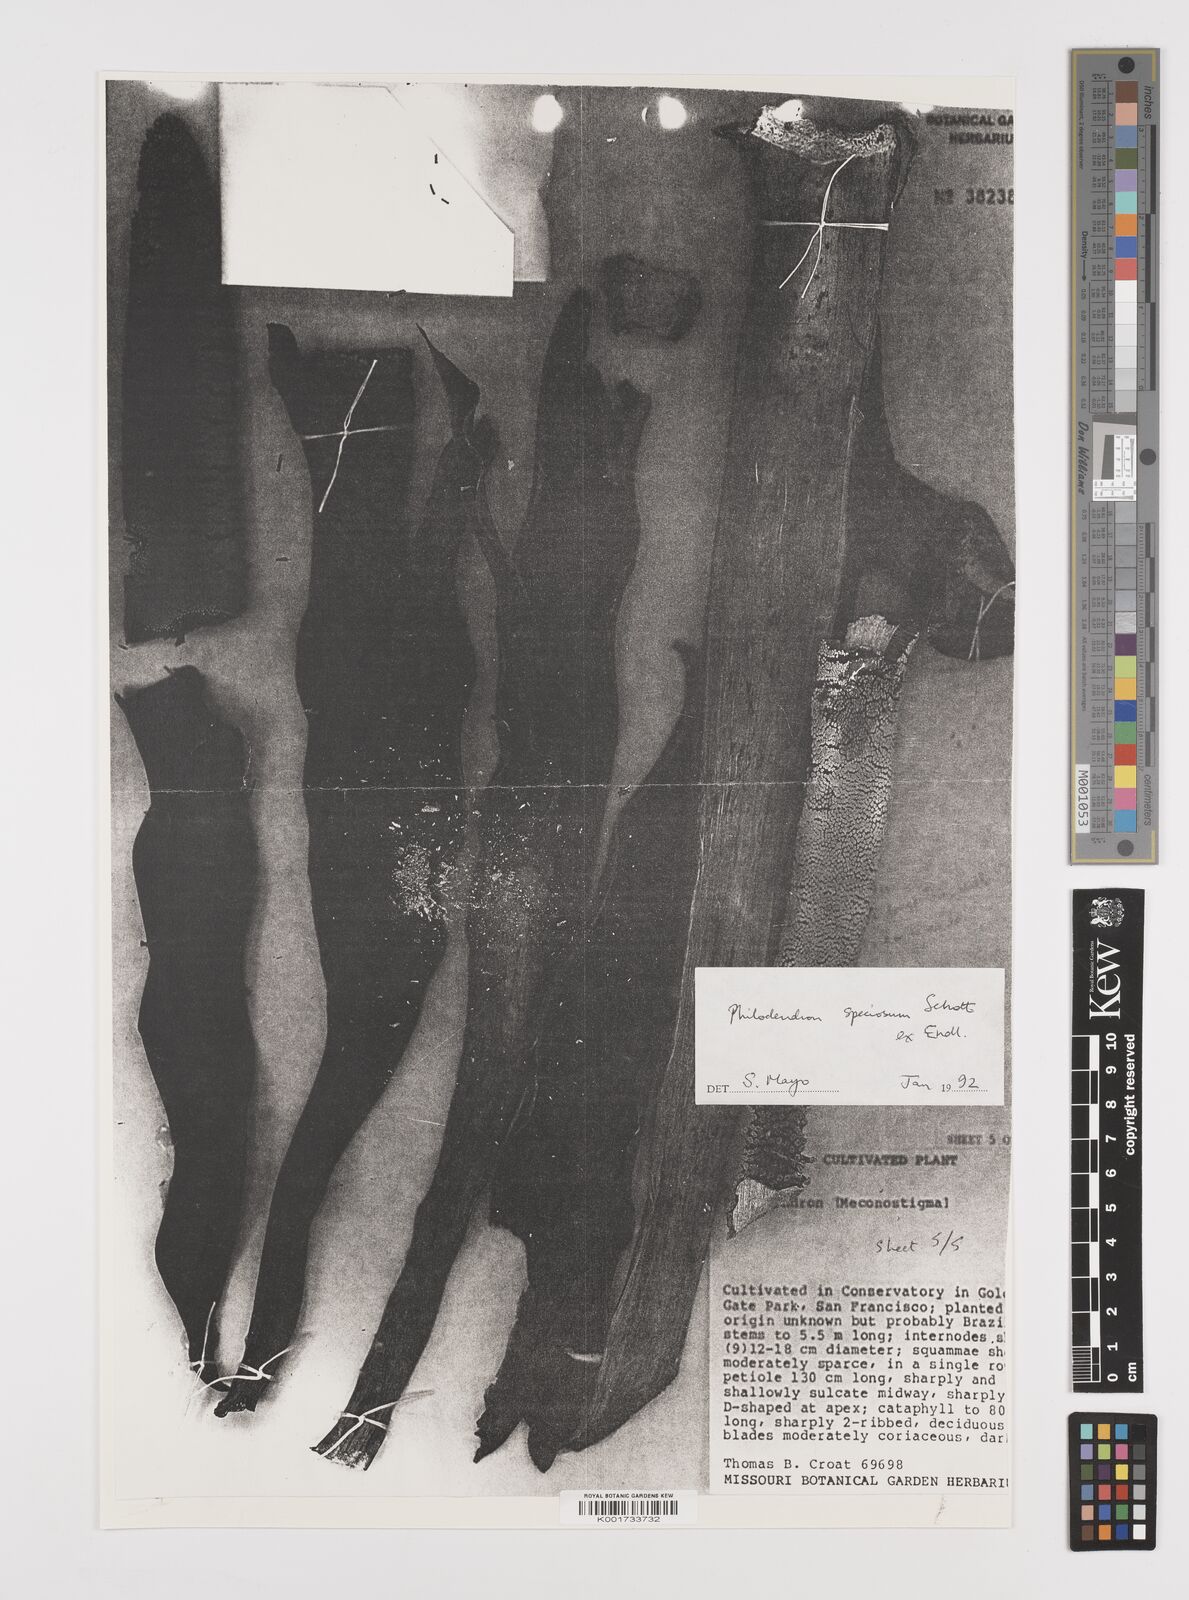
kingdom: Plantae
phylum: Tracheophyta
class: Liliopsida
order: Alismatales
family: Araceae
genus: Thaumatophyllum
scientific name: Thaumatophyllum speciosum
